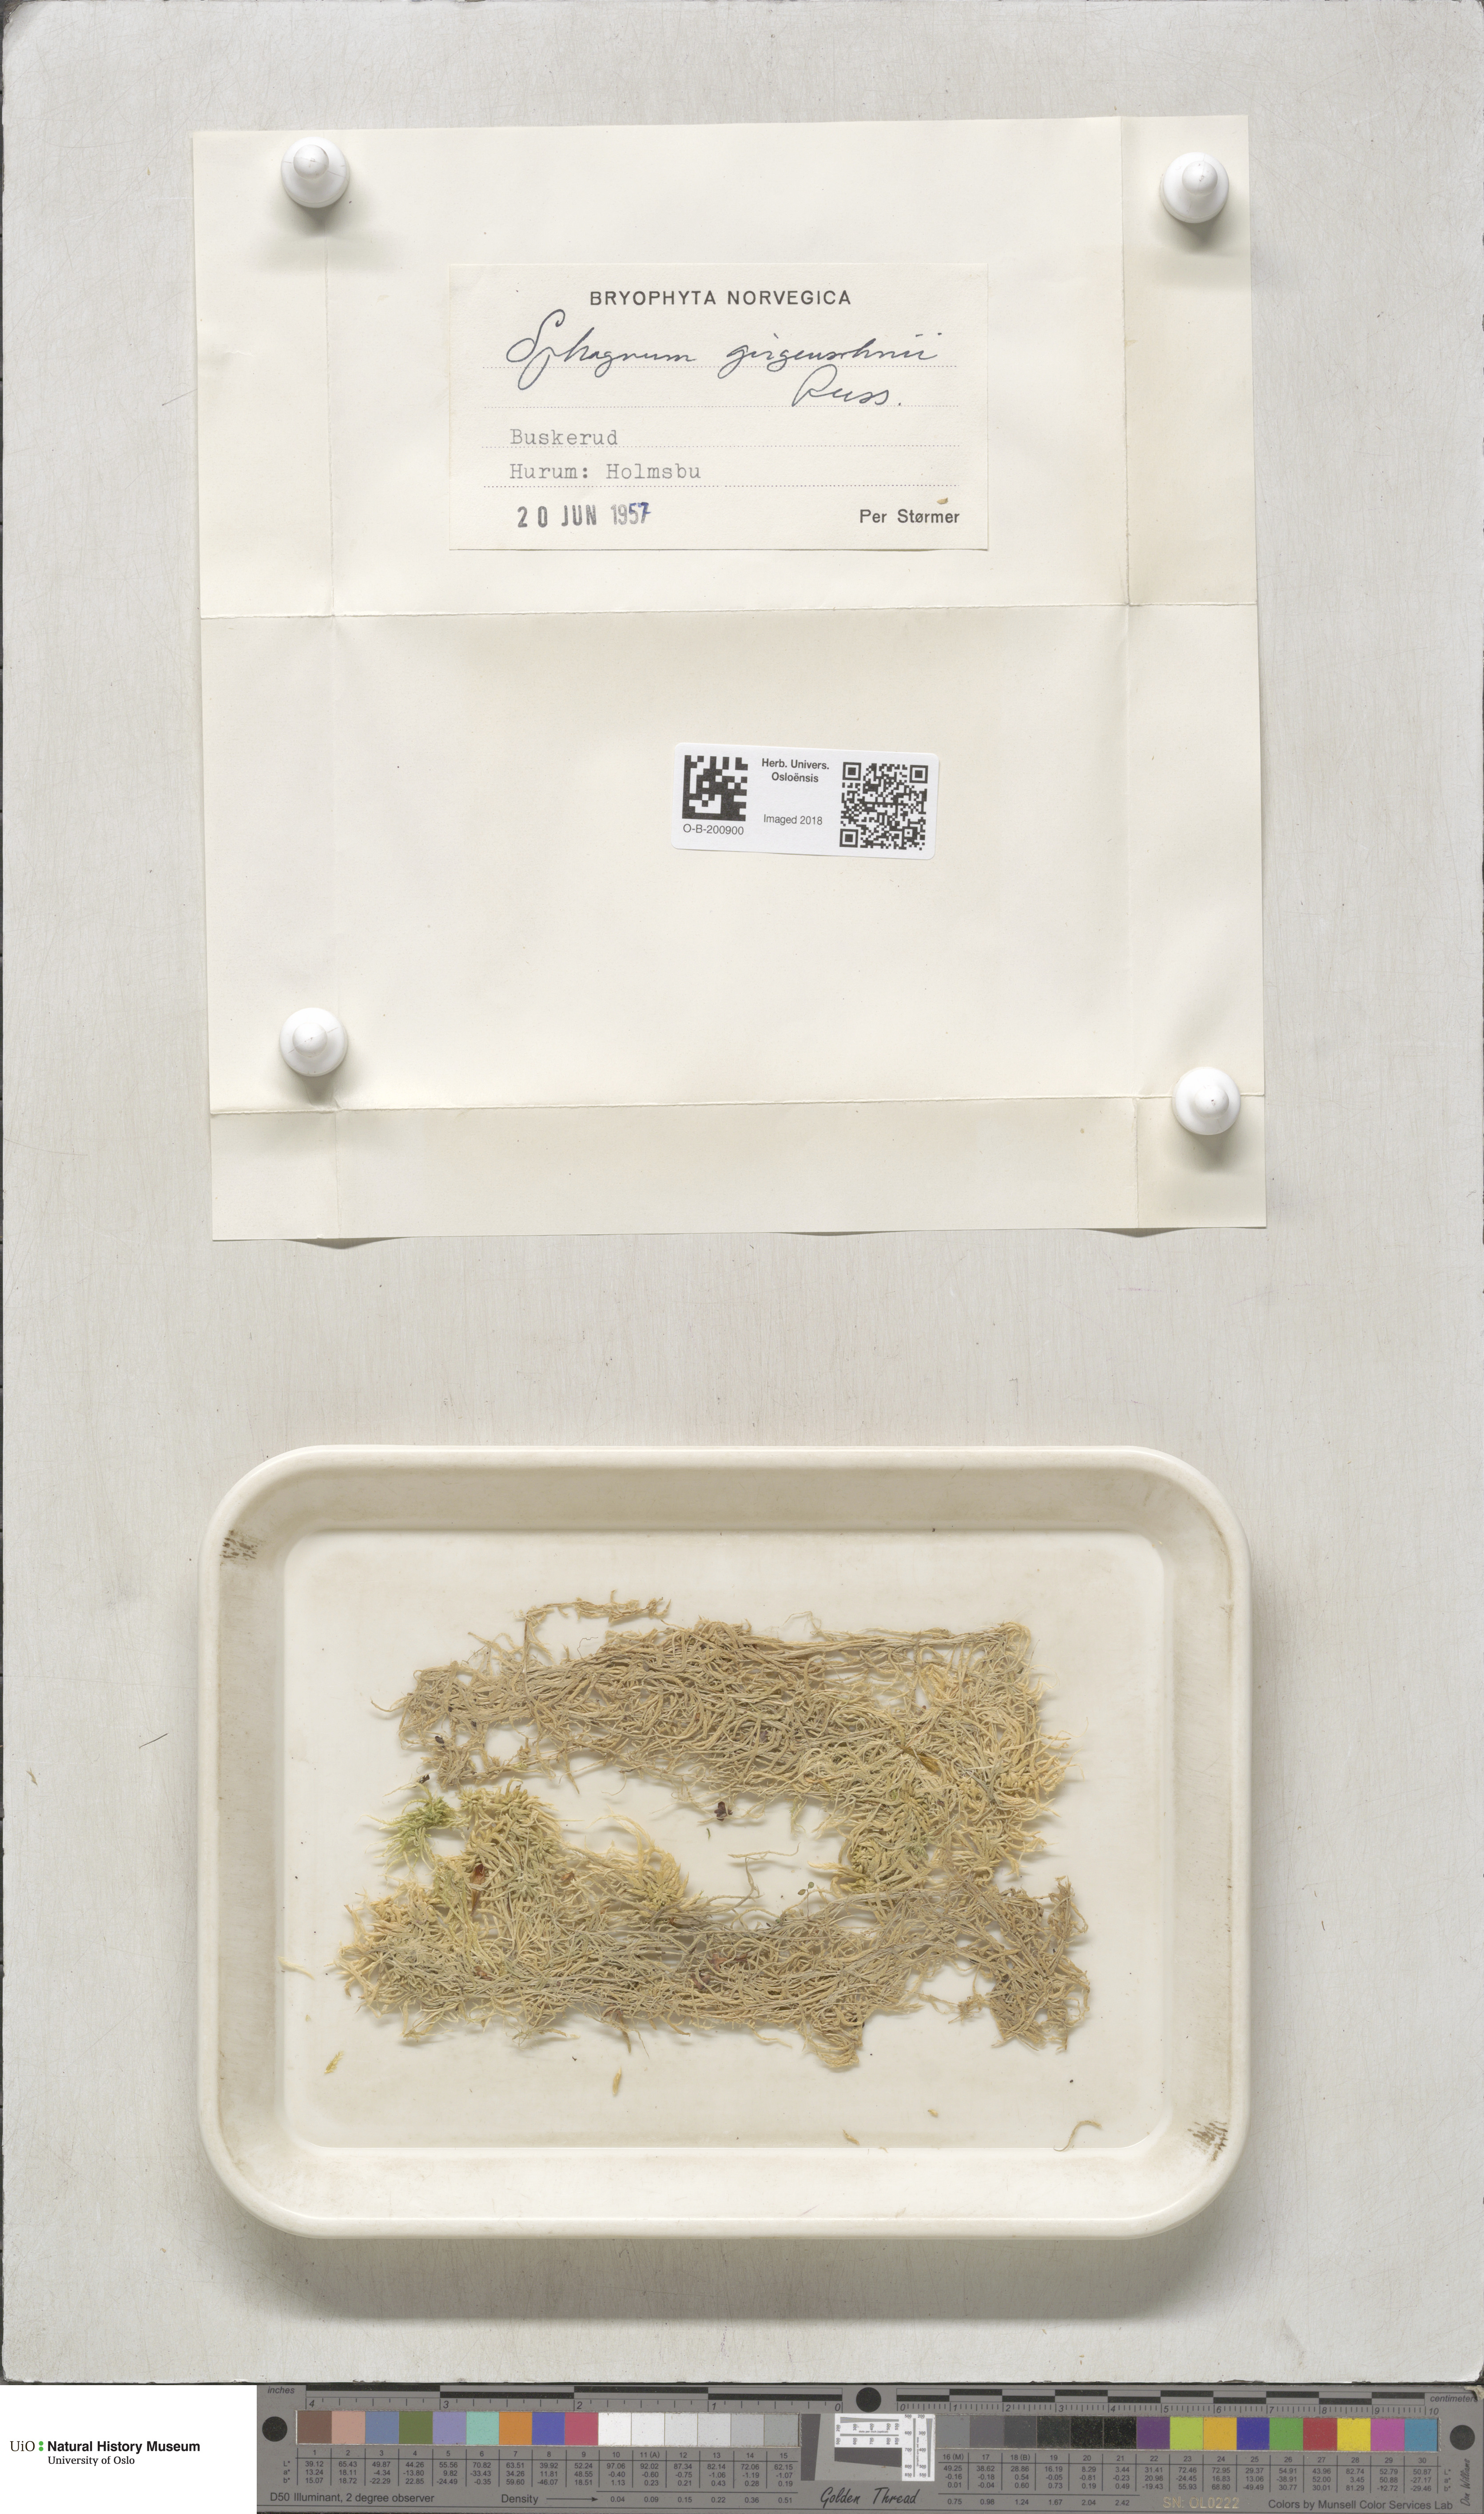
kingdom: Plantae
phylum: Bryophyta
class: Sphagnopsida
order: Sphagnales
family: Sphagnaceae
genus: Sphagnum
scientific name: Sphagnum girgensohnii
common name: Girgensohn's peat moss
